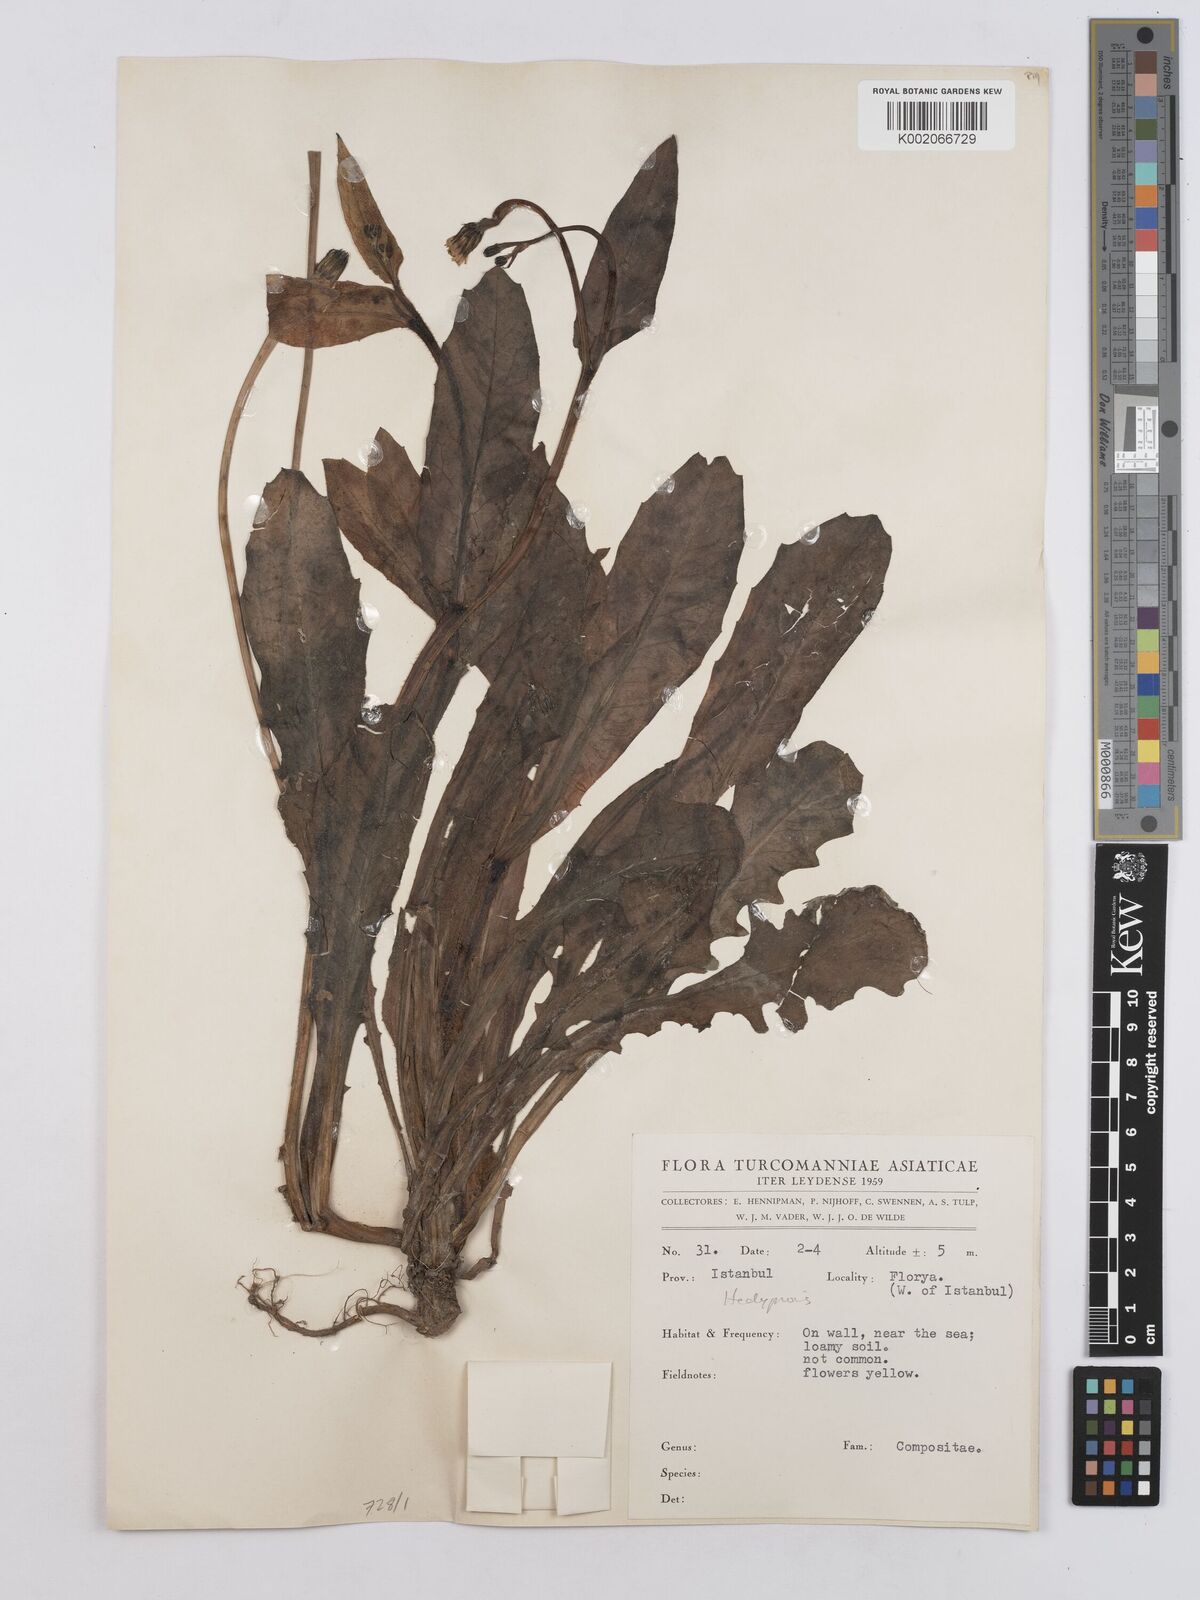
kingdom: Plantae
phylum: Tracheophyta
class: Magnoliopsida
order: Asterales
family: Asteraceae
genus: Hedypnois
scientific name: Hedypnois
